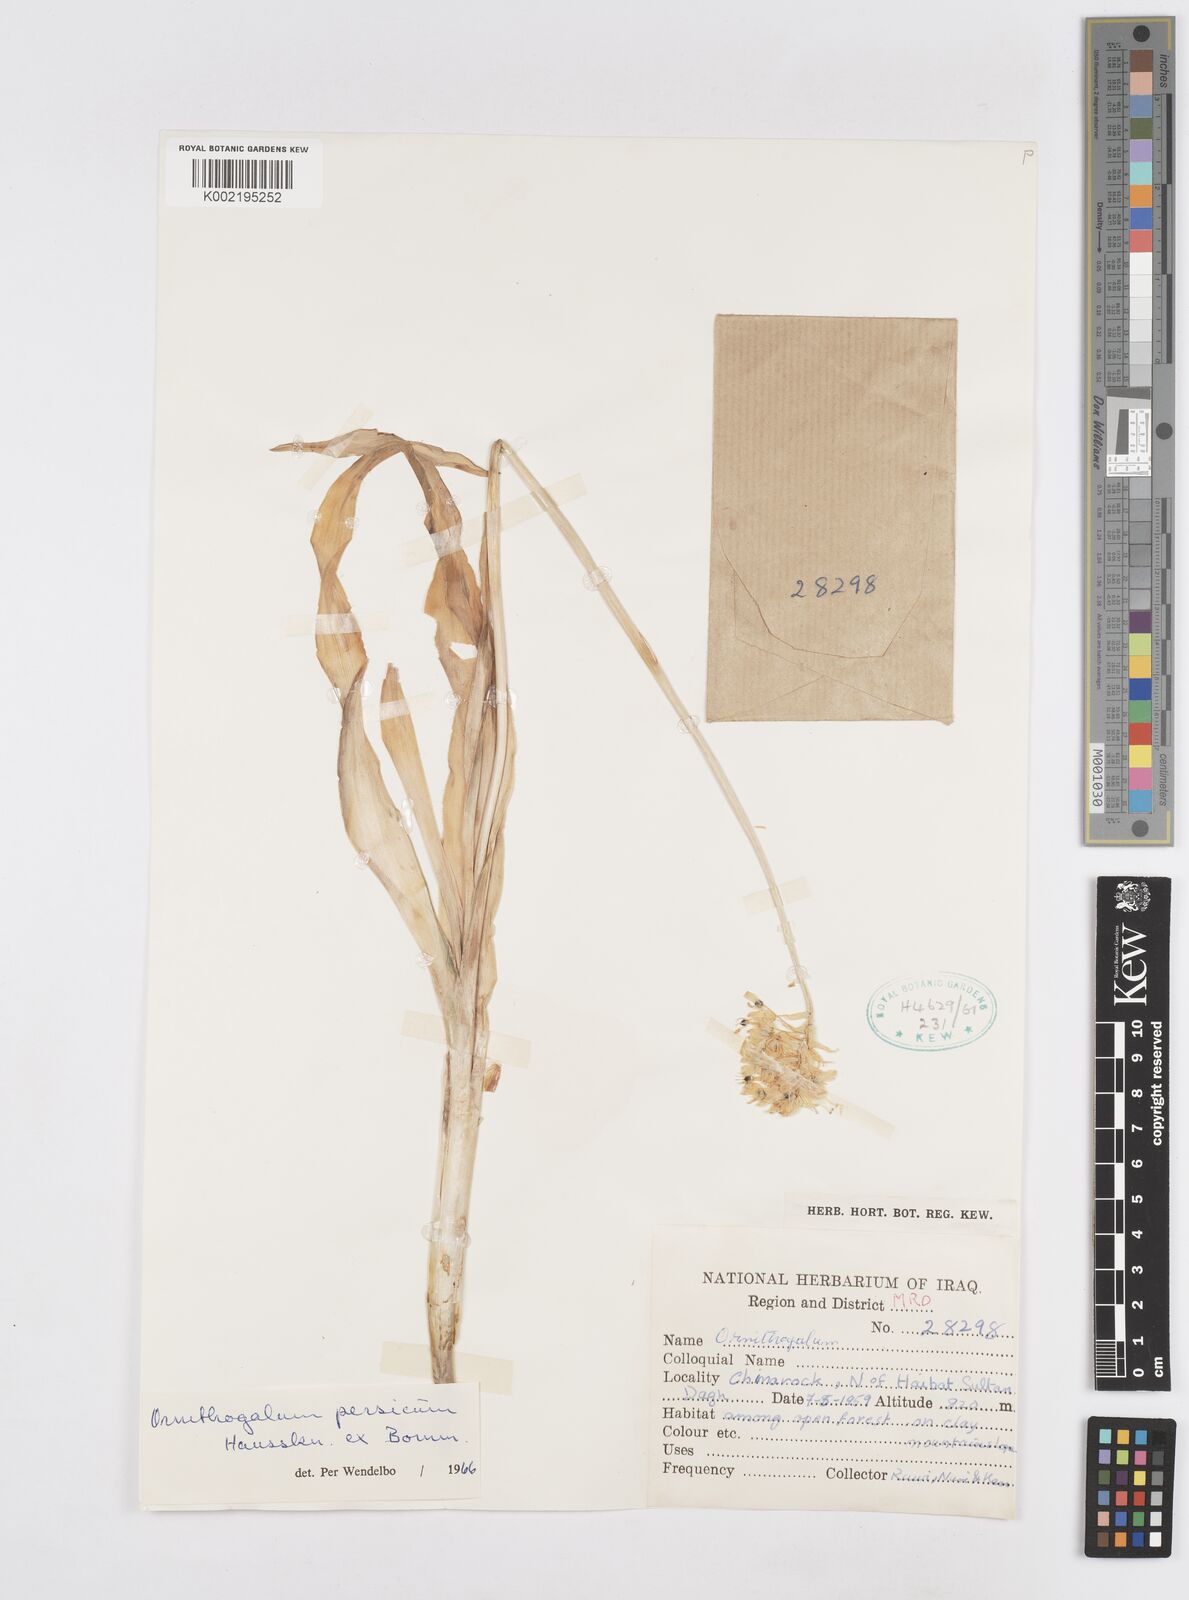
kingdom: Plantae
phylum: Tracheophyta
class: Liliopsida
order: Asparagales
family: Asparagaceae
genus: Ornithogalum
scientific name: Ornithogalum persicum
